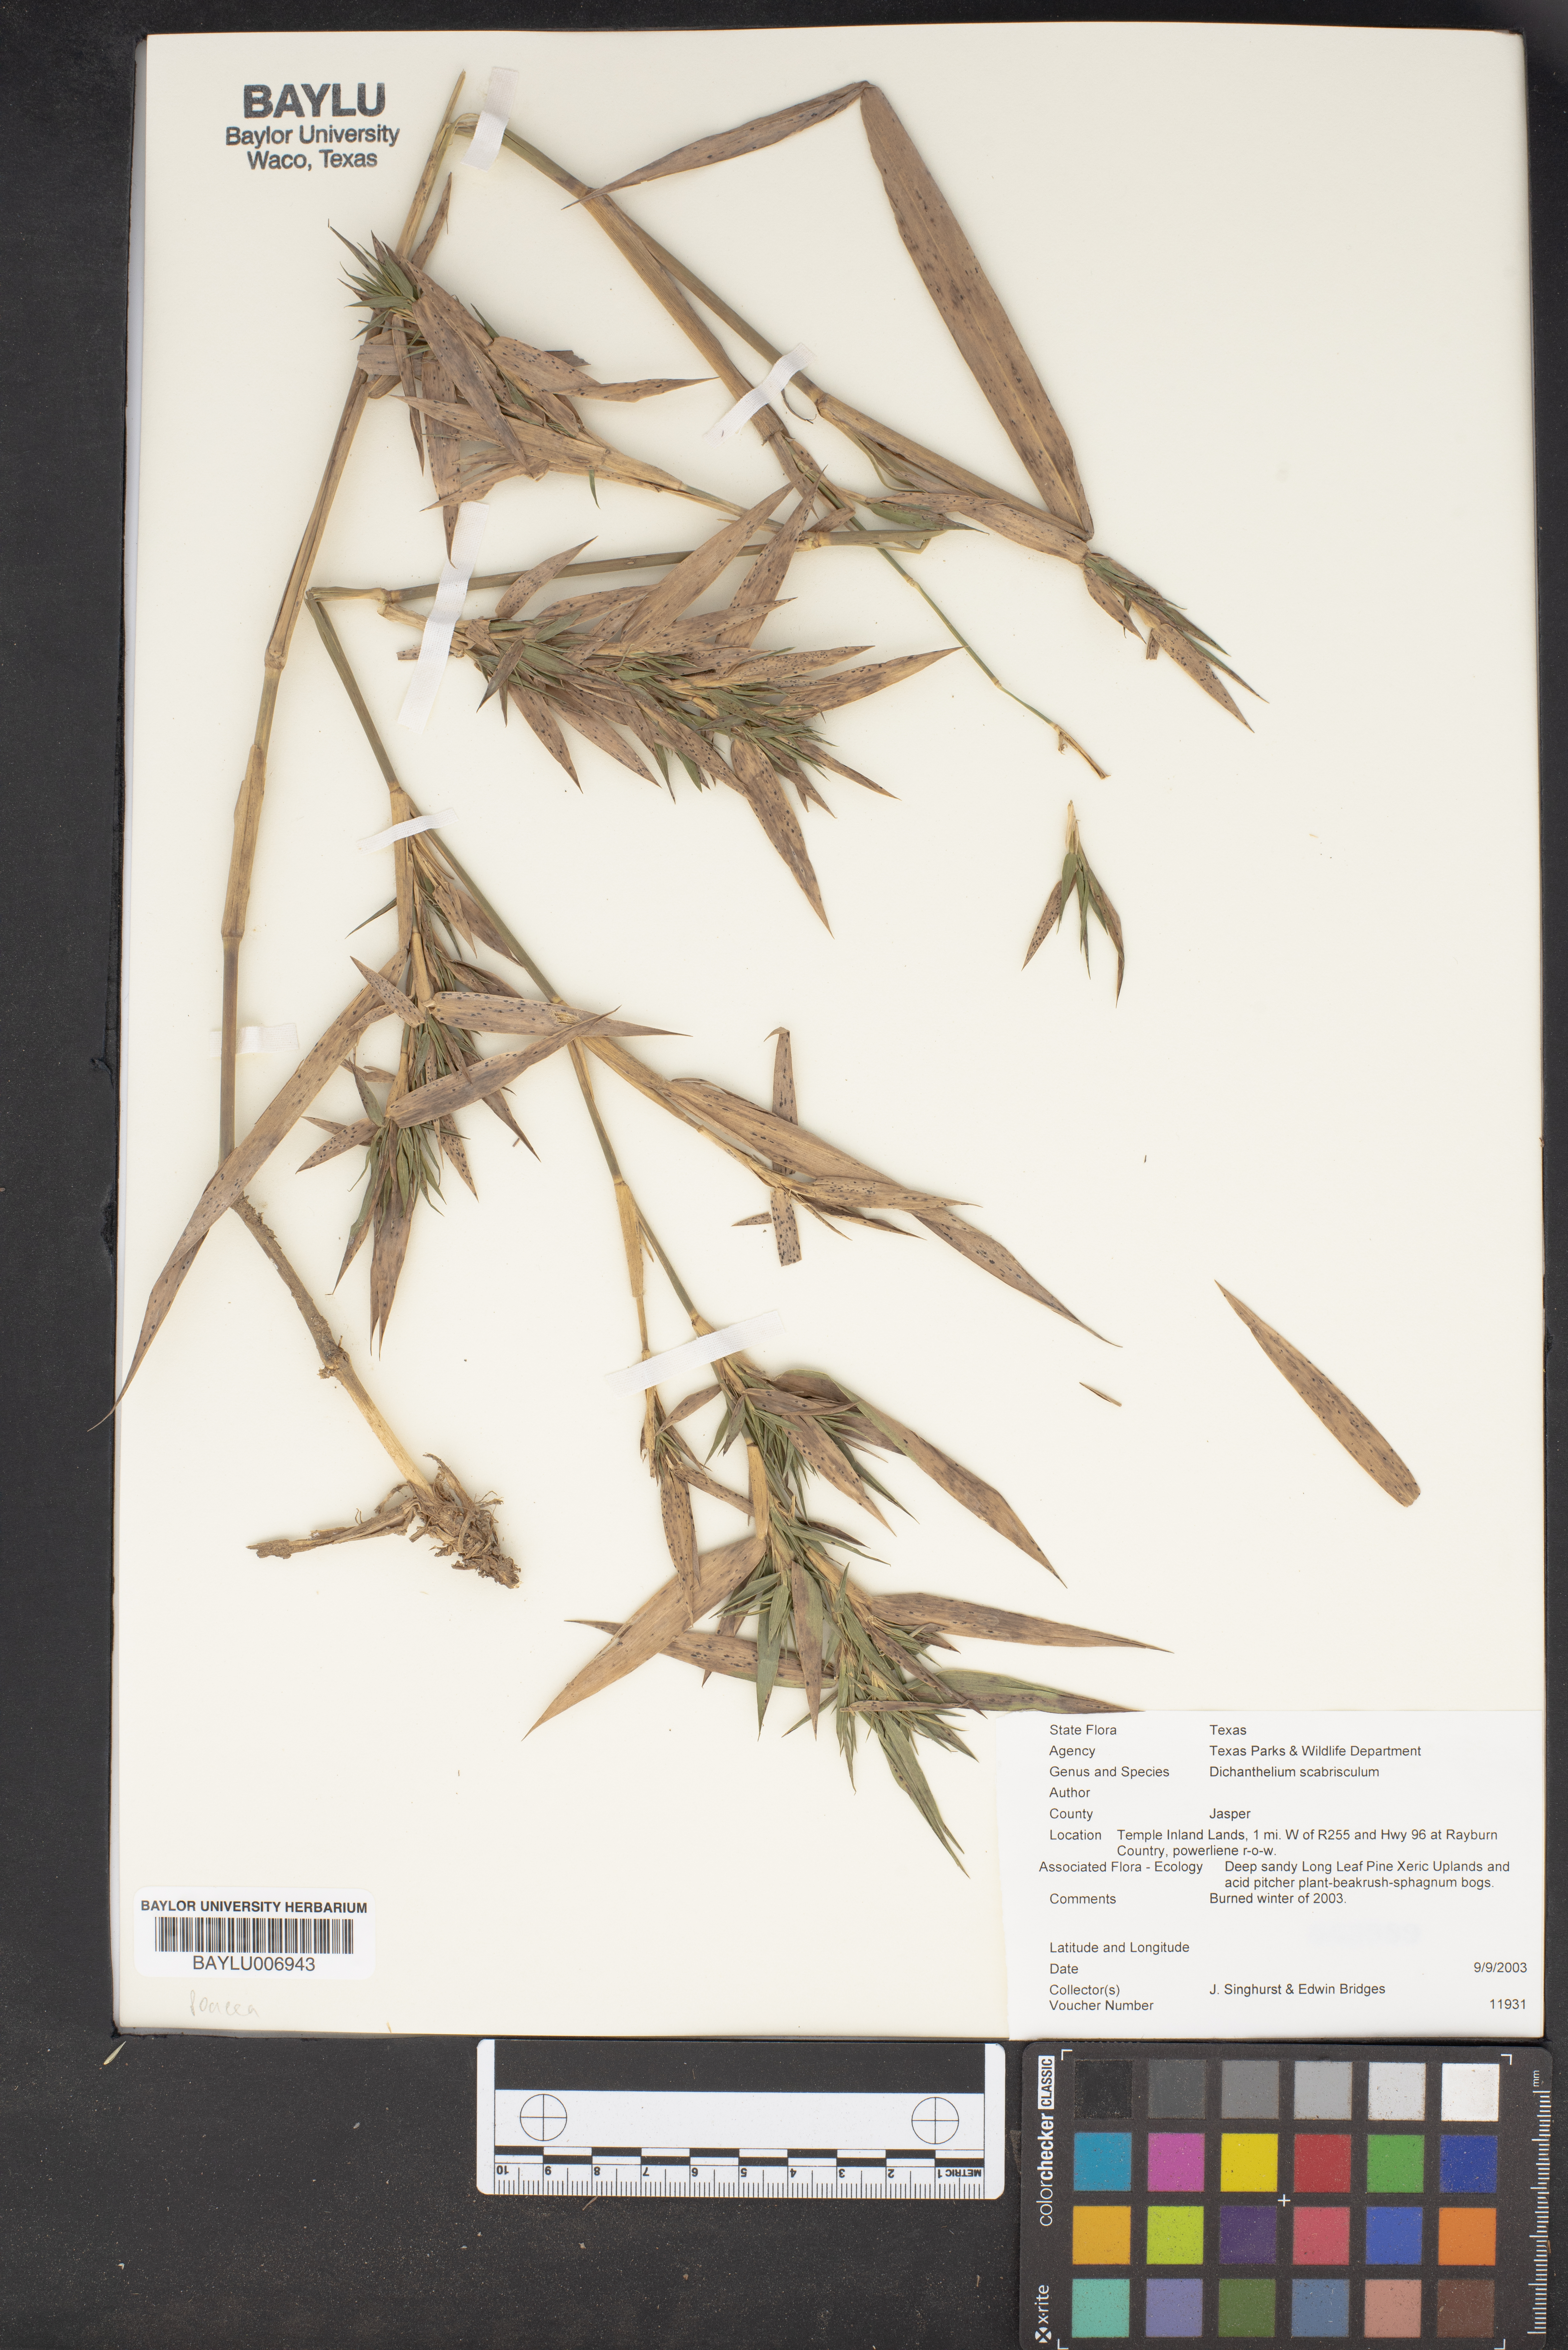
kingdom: Plantae
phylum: Tracheophyta
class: Liliopsida
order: Poales
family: Poaceae
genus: Dichanthelium
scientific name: Dichanthelium scabriusculum
